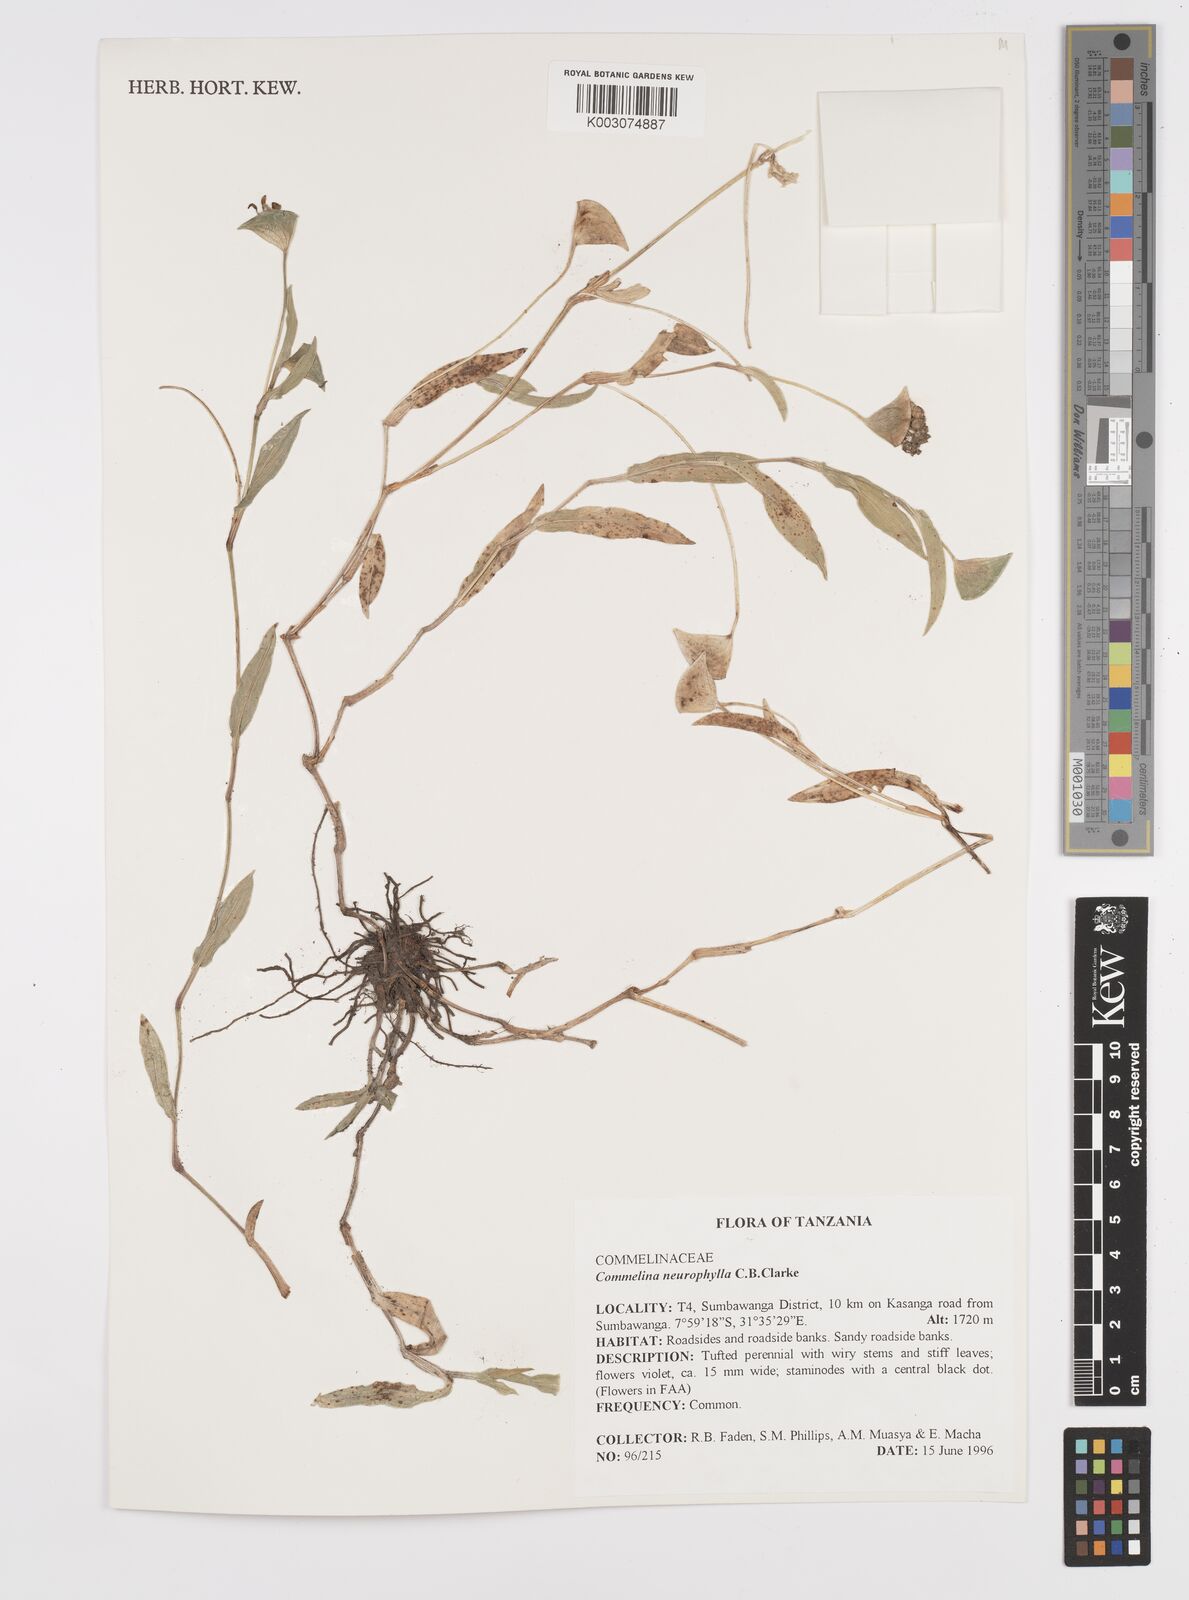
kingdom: Plantae
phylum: Tracheophyta
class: Liliopsida
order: Commelinales
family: Commelinaceae
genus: Commelina
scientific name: Commelina neurophylla
